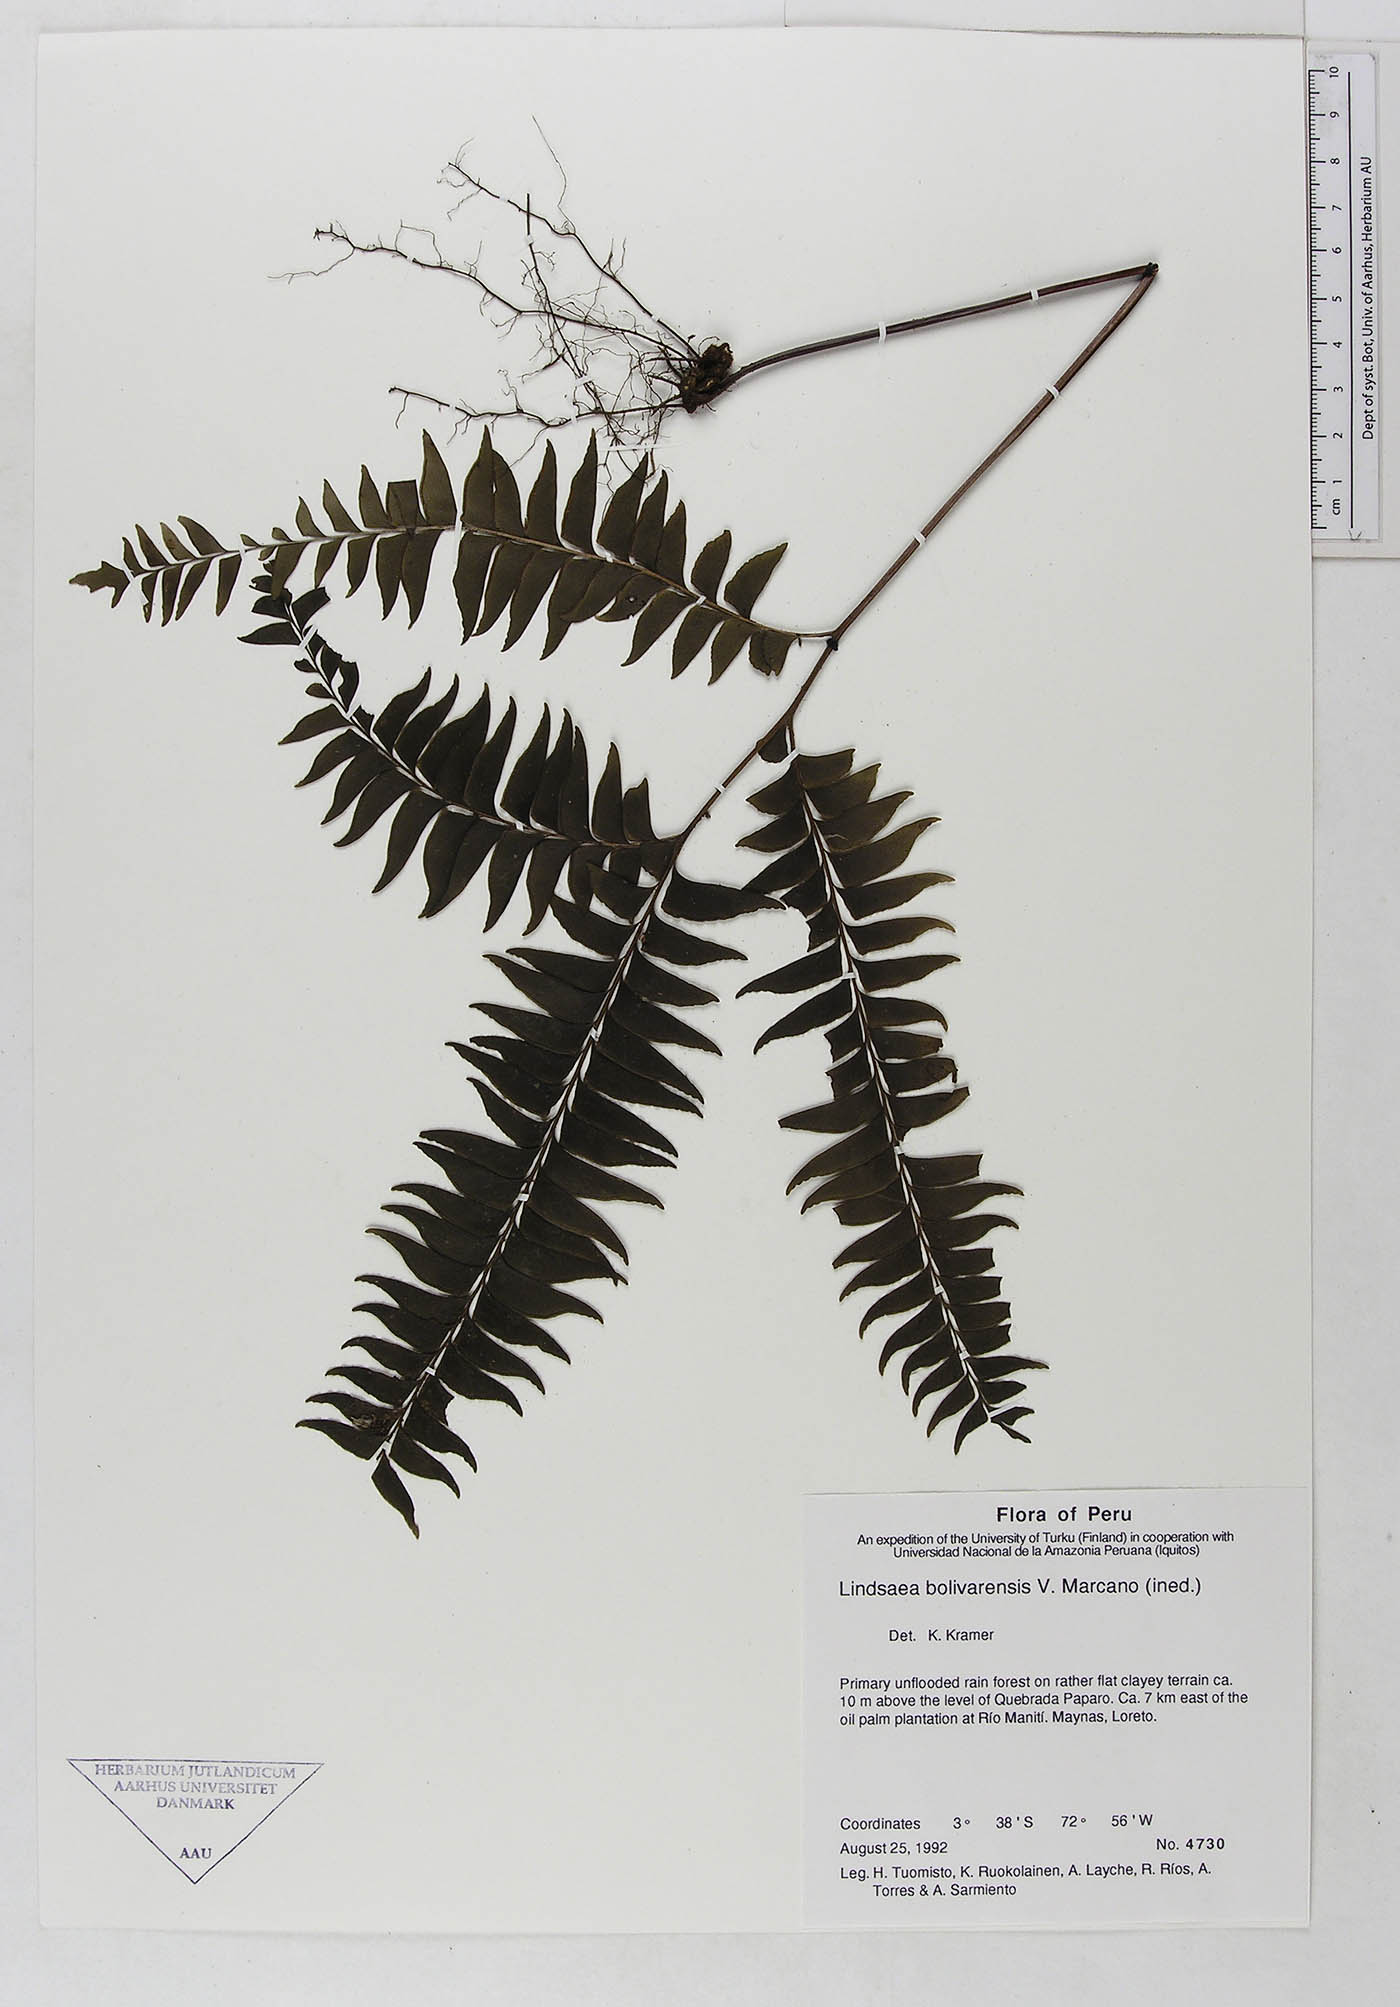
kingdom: Plantae
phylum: Tracheophyta
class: Polypodiopsida
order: Polypodiales
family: Lindsaeaceae
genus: Lindsaea
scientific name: Lindsaea bolivarensis
